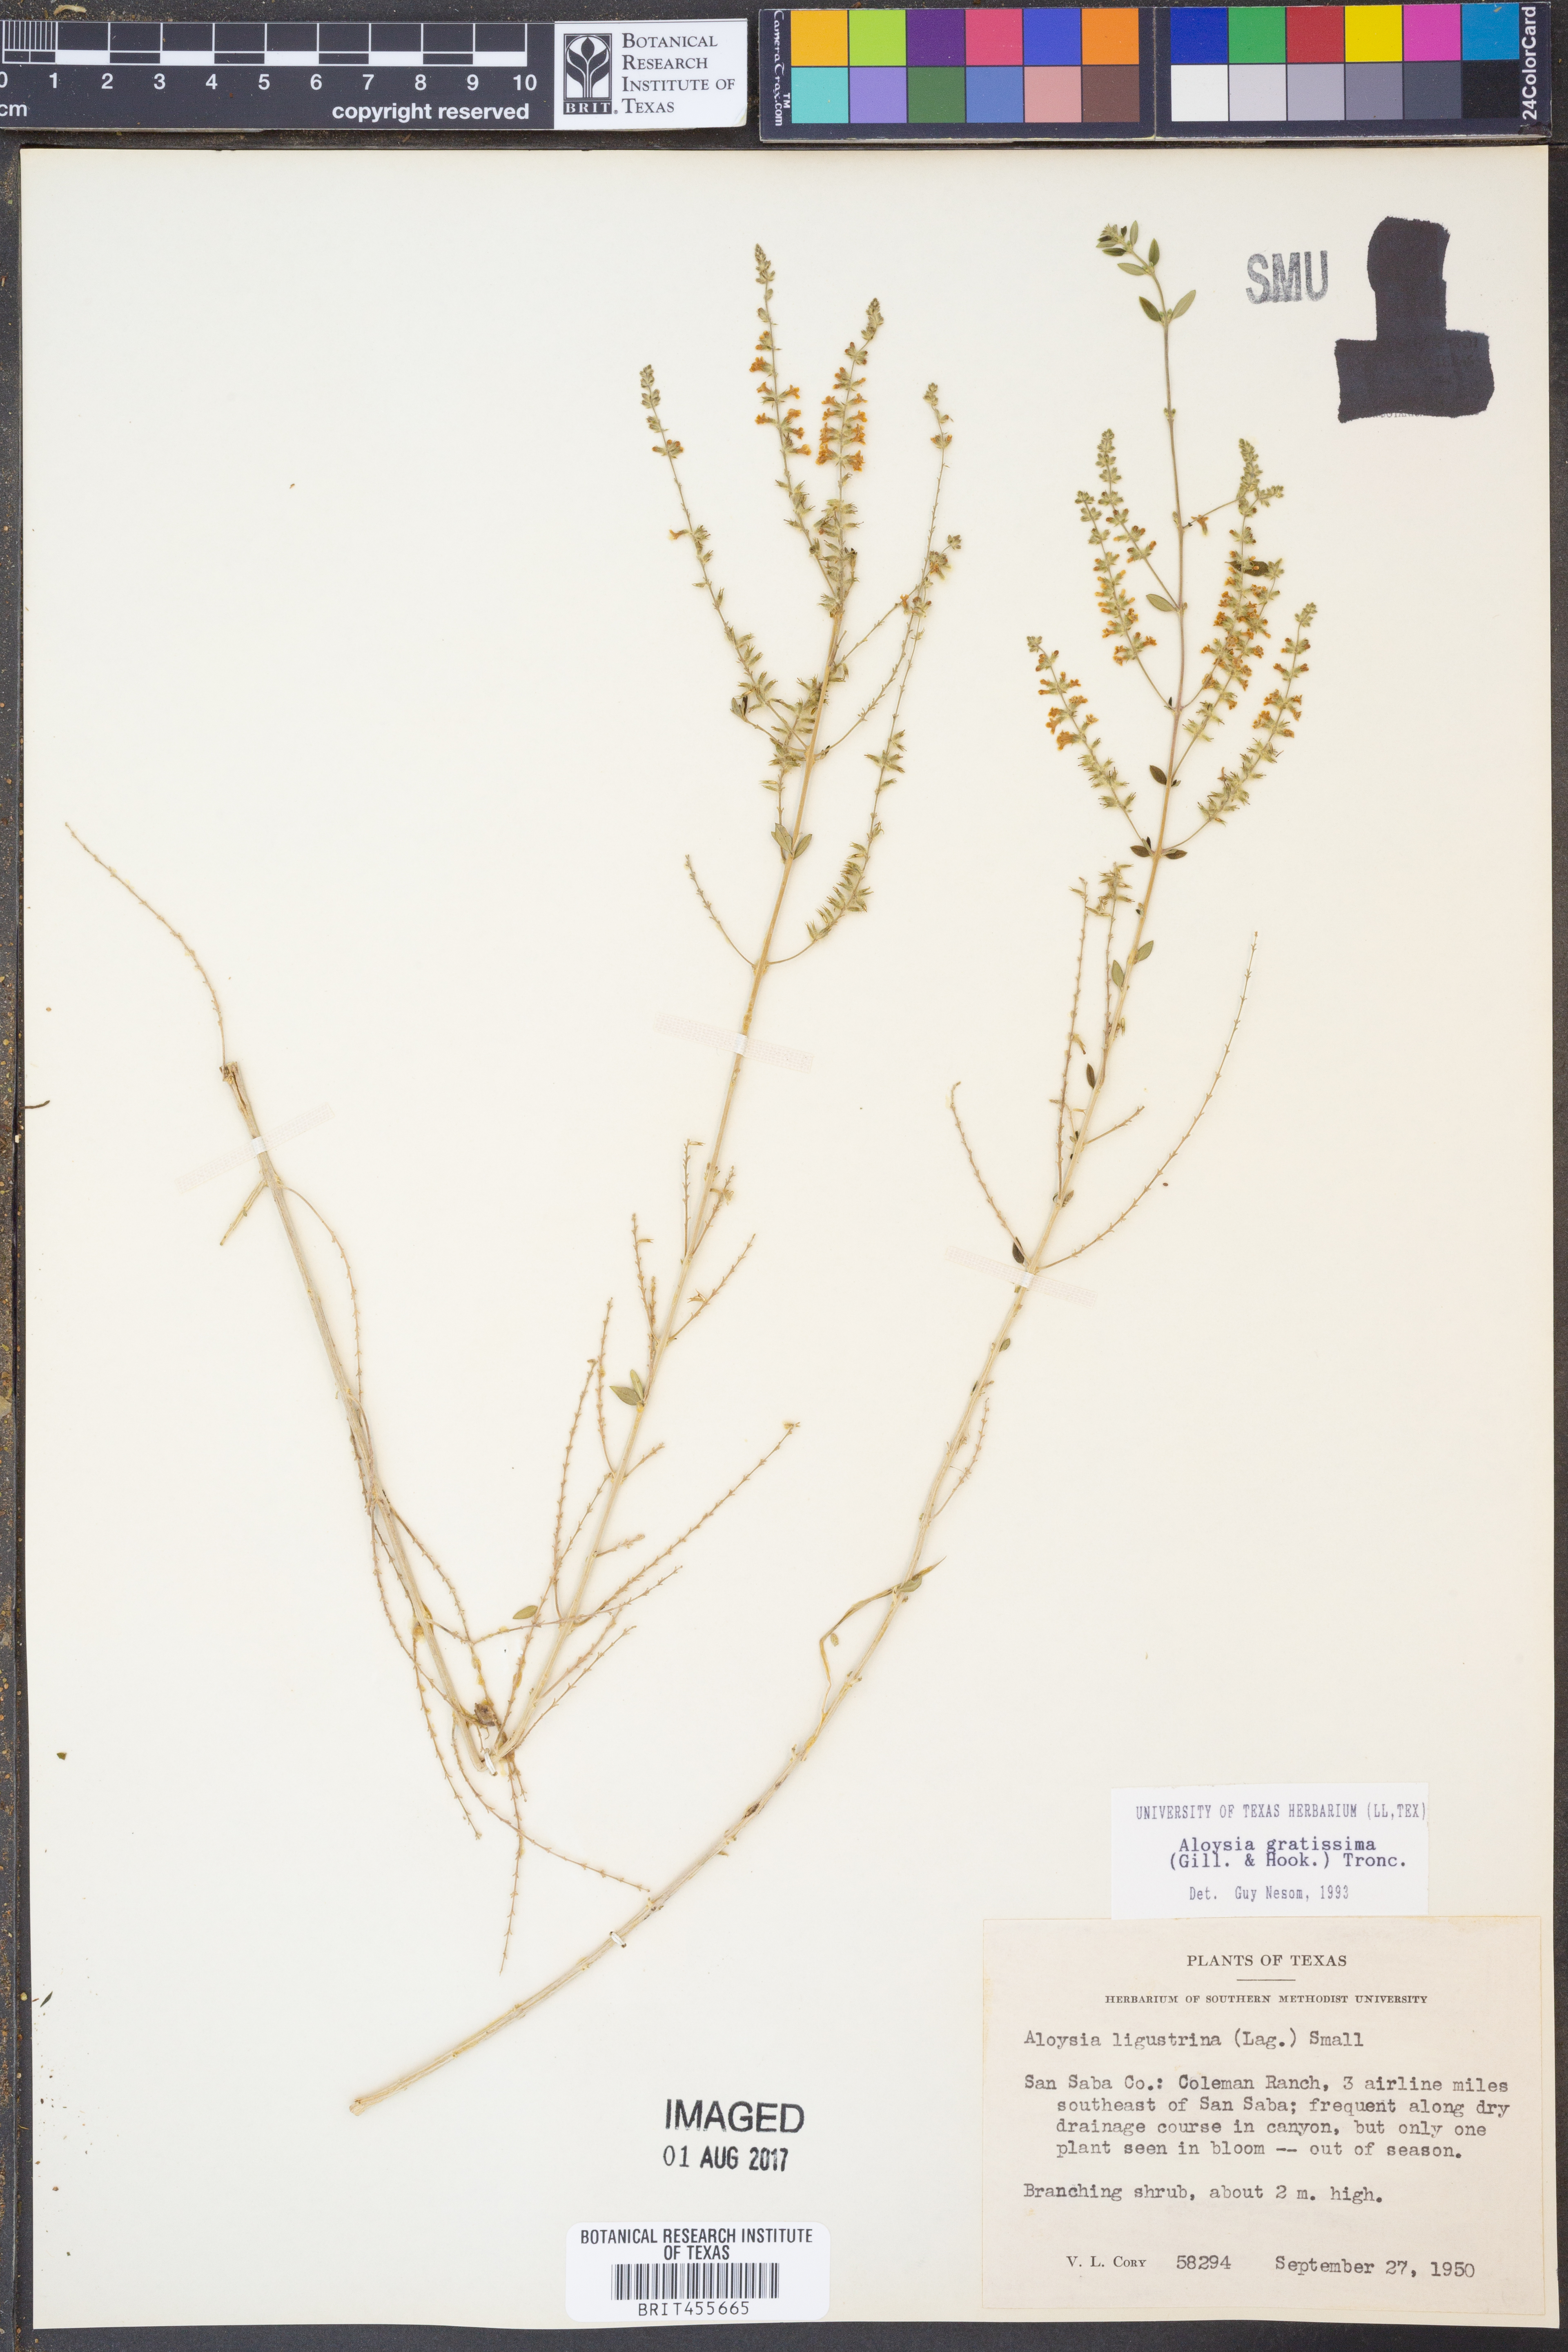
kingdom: Plantae
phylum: Tracheophyta
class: Magnoliopsida
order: Lamiales
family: Verbenaceae
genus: Aloysia
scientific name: Aloysia gratissima
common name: Common bee-brush
